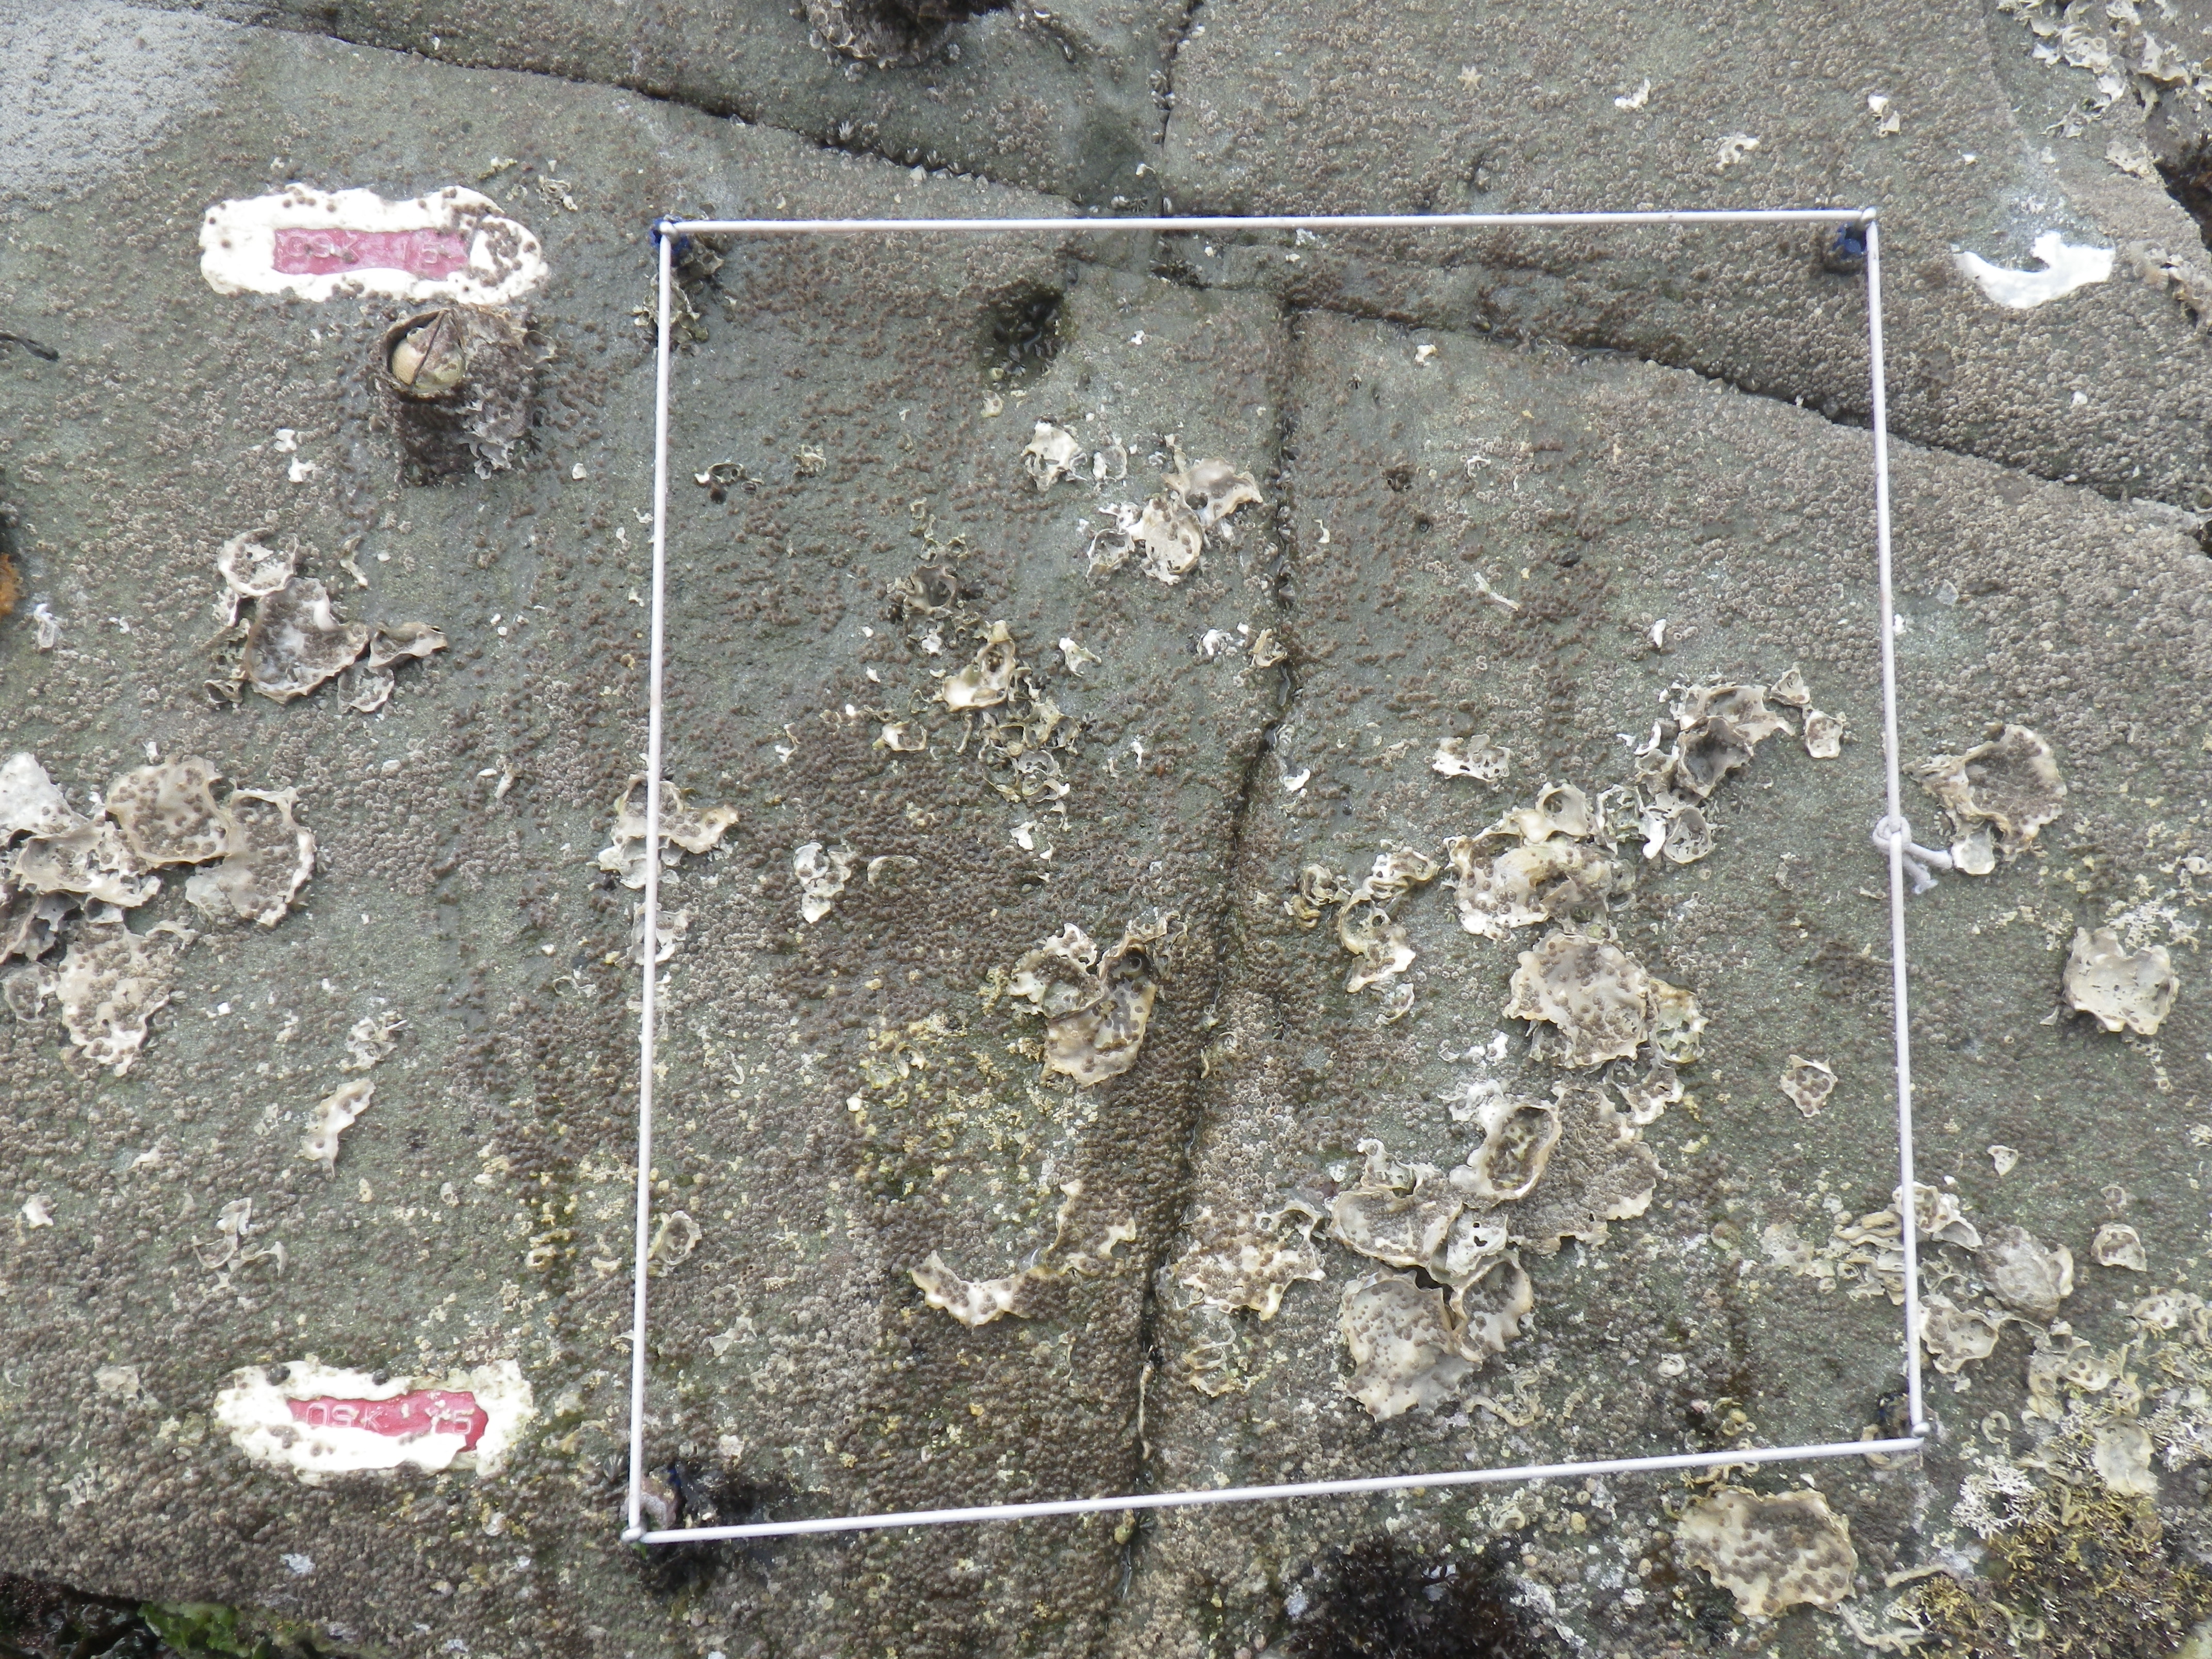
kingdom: Animalia
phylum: Arthropoda
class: Maxillopoda
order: Sessilia
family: Chthamalidae
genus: Chthamalus
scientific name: Chthamalus challengeri
